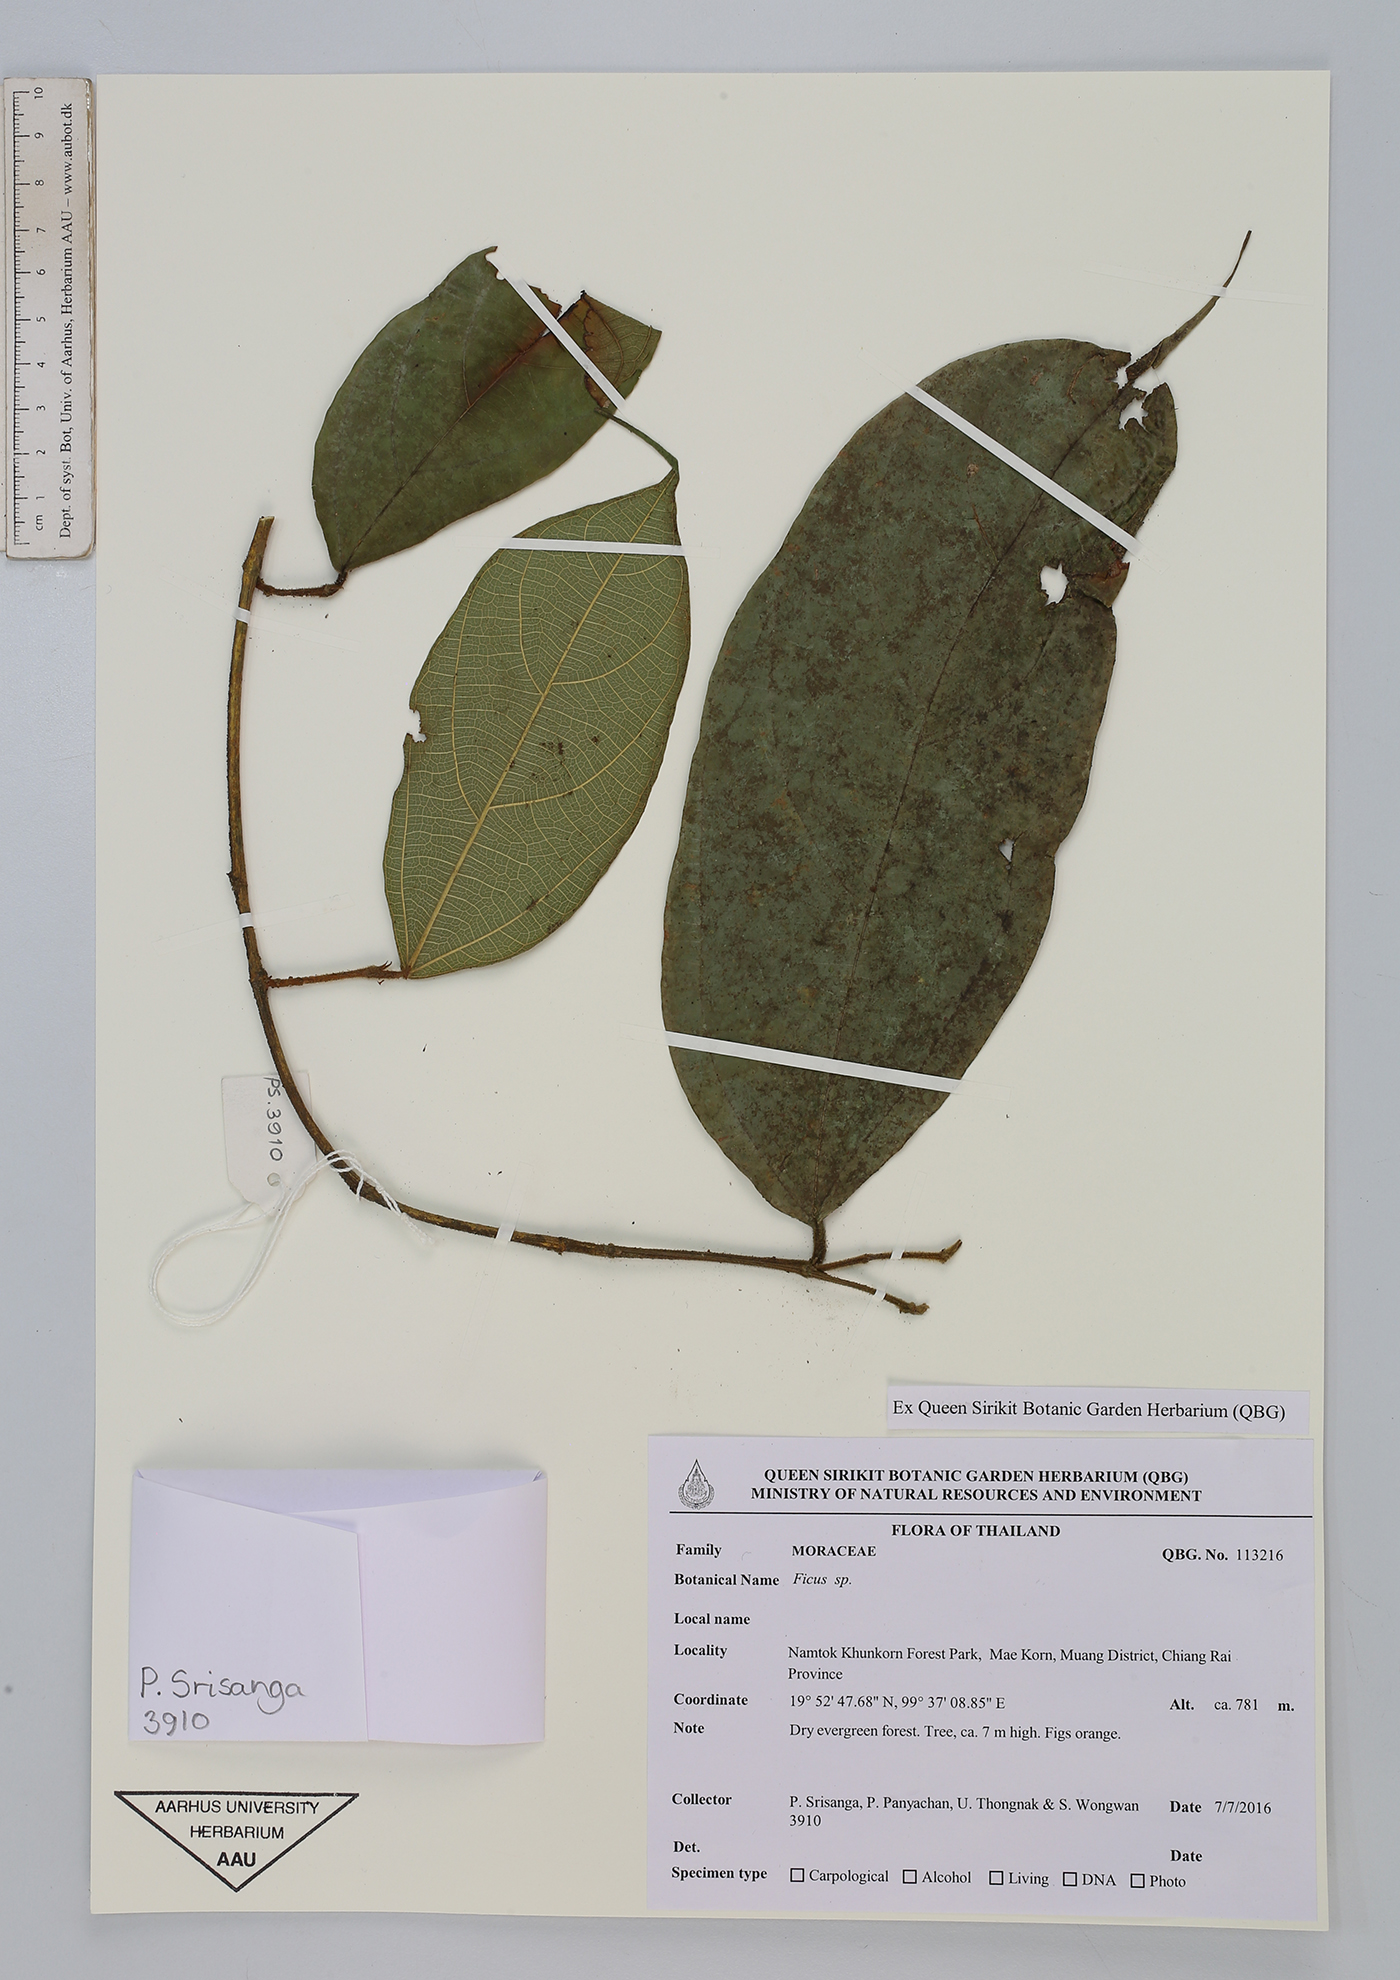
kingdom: Plantae
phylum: Tracheophyta
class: Magnoliopsida
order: Rosales
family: Moraceae
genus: Ficus
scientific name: Ficus
